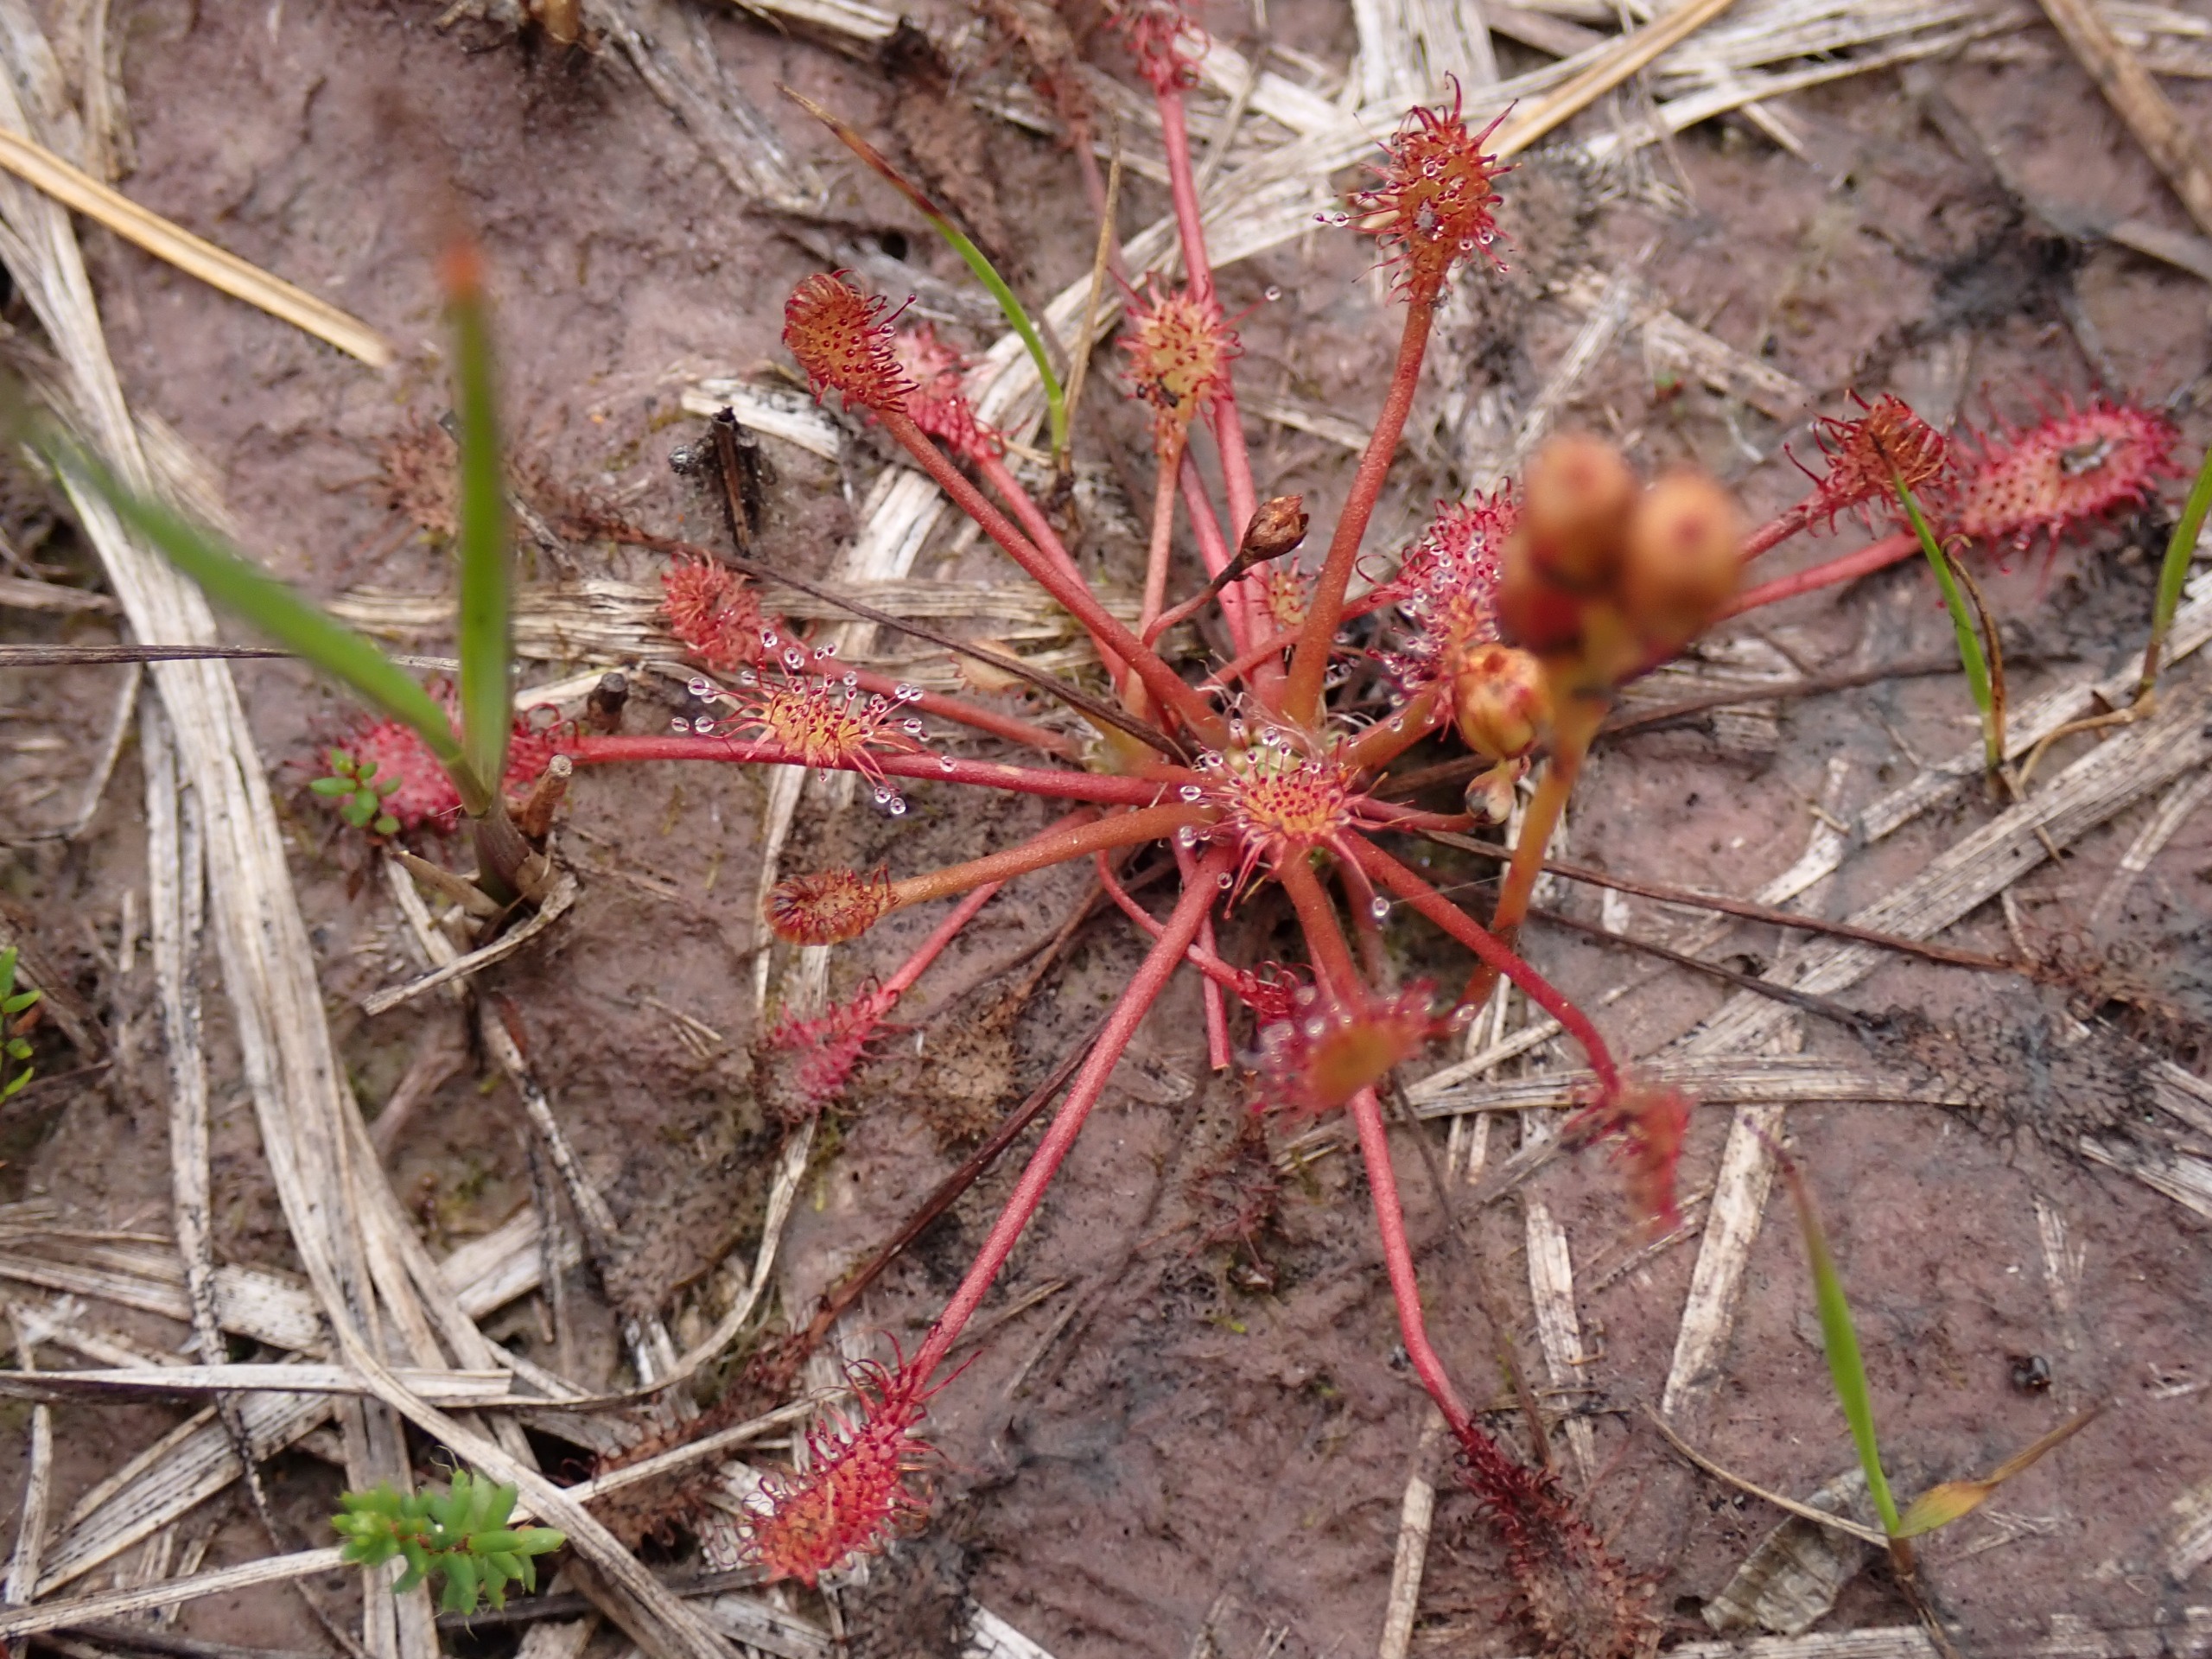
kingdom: Plantae
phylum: Tracheophyta
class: Magnoliopsida
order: Caryophyllales
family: Droseraceae
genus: Drosera
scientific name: Drosera intermedia
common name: Liden soldug
